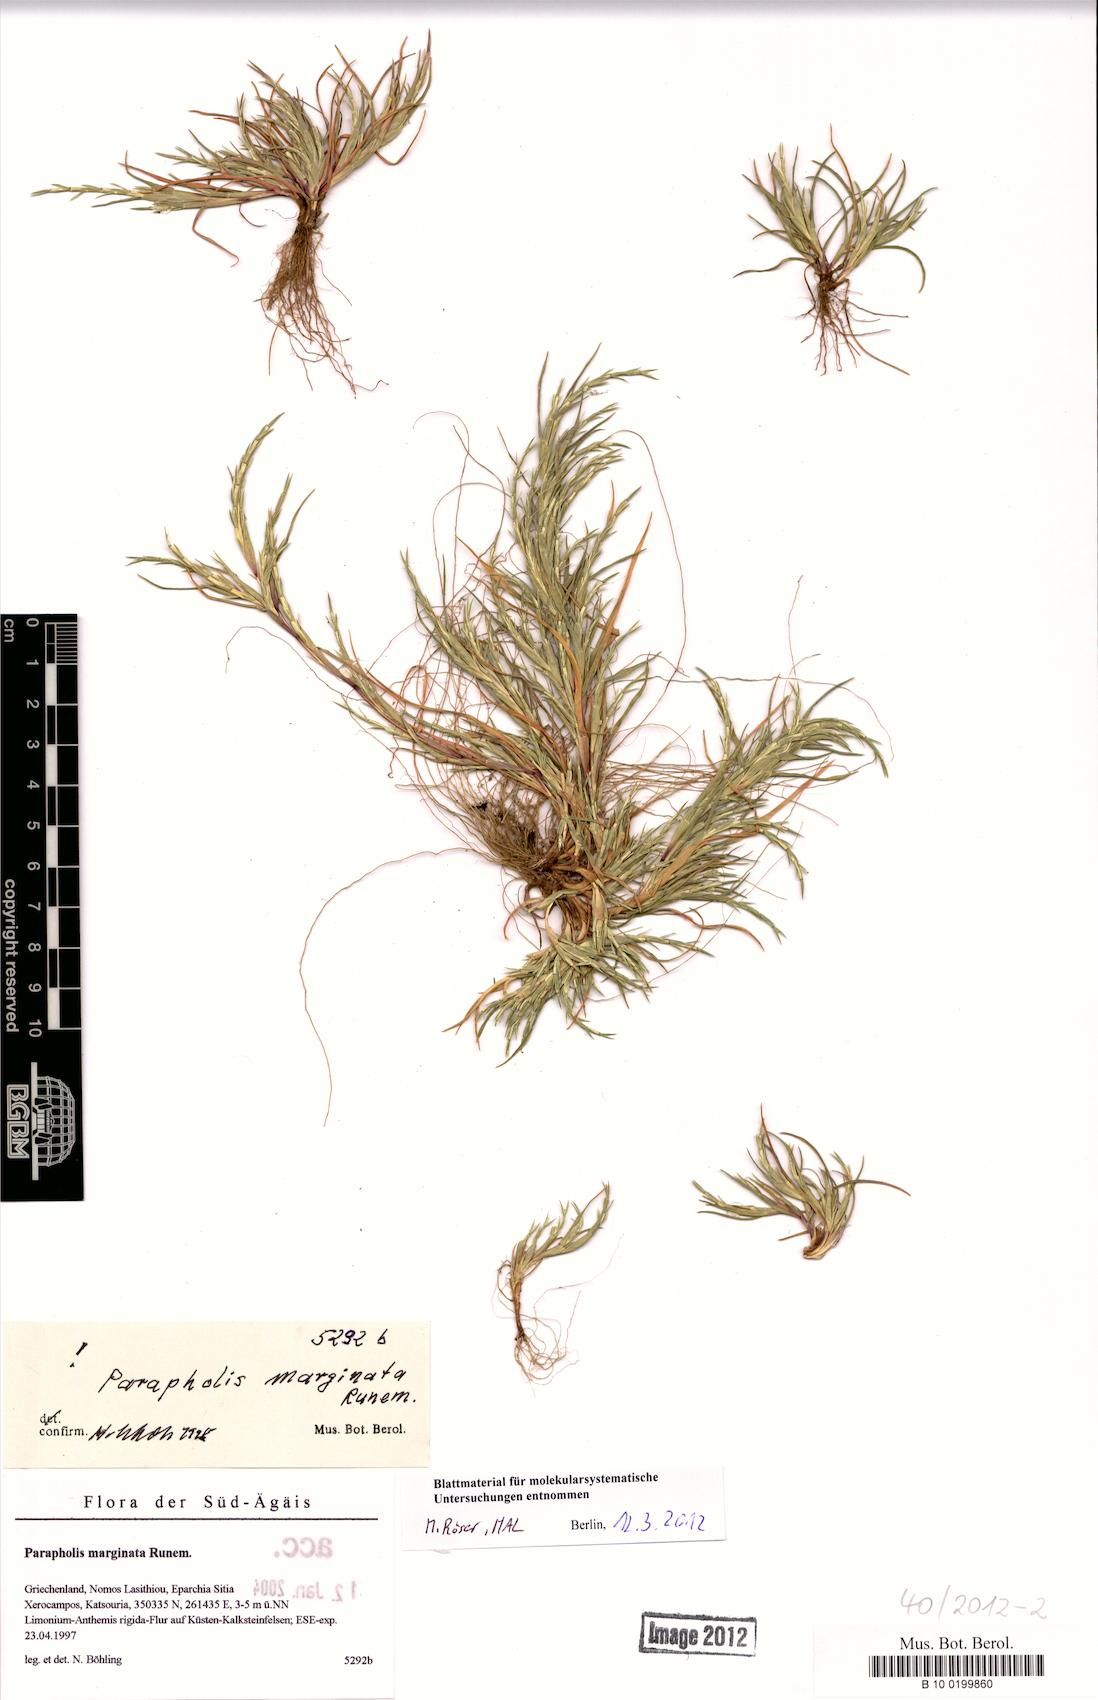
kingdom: Plantae
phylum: Tracheophyta
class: Liliopsida
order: Poales
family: Poaceae
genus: Parapholis
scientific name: Parapholis marginata
